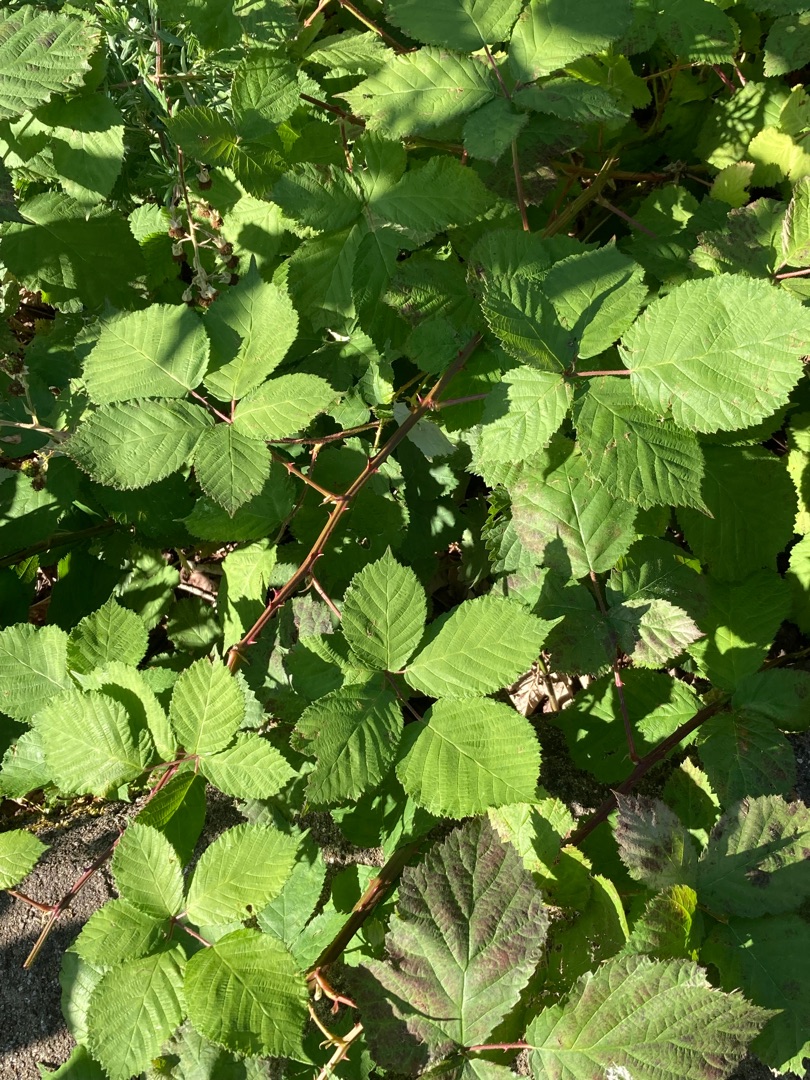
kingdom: Plantae
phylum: Tracheophyta
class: Magnoliopsida
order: Rosales
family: Rosaceae
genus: Rubus
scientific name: Rubus armeniacus
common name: Armensk brombær
